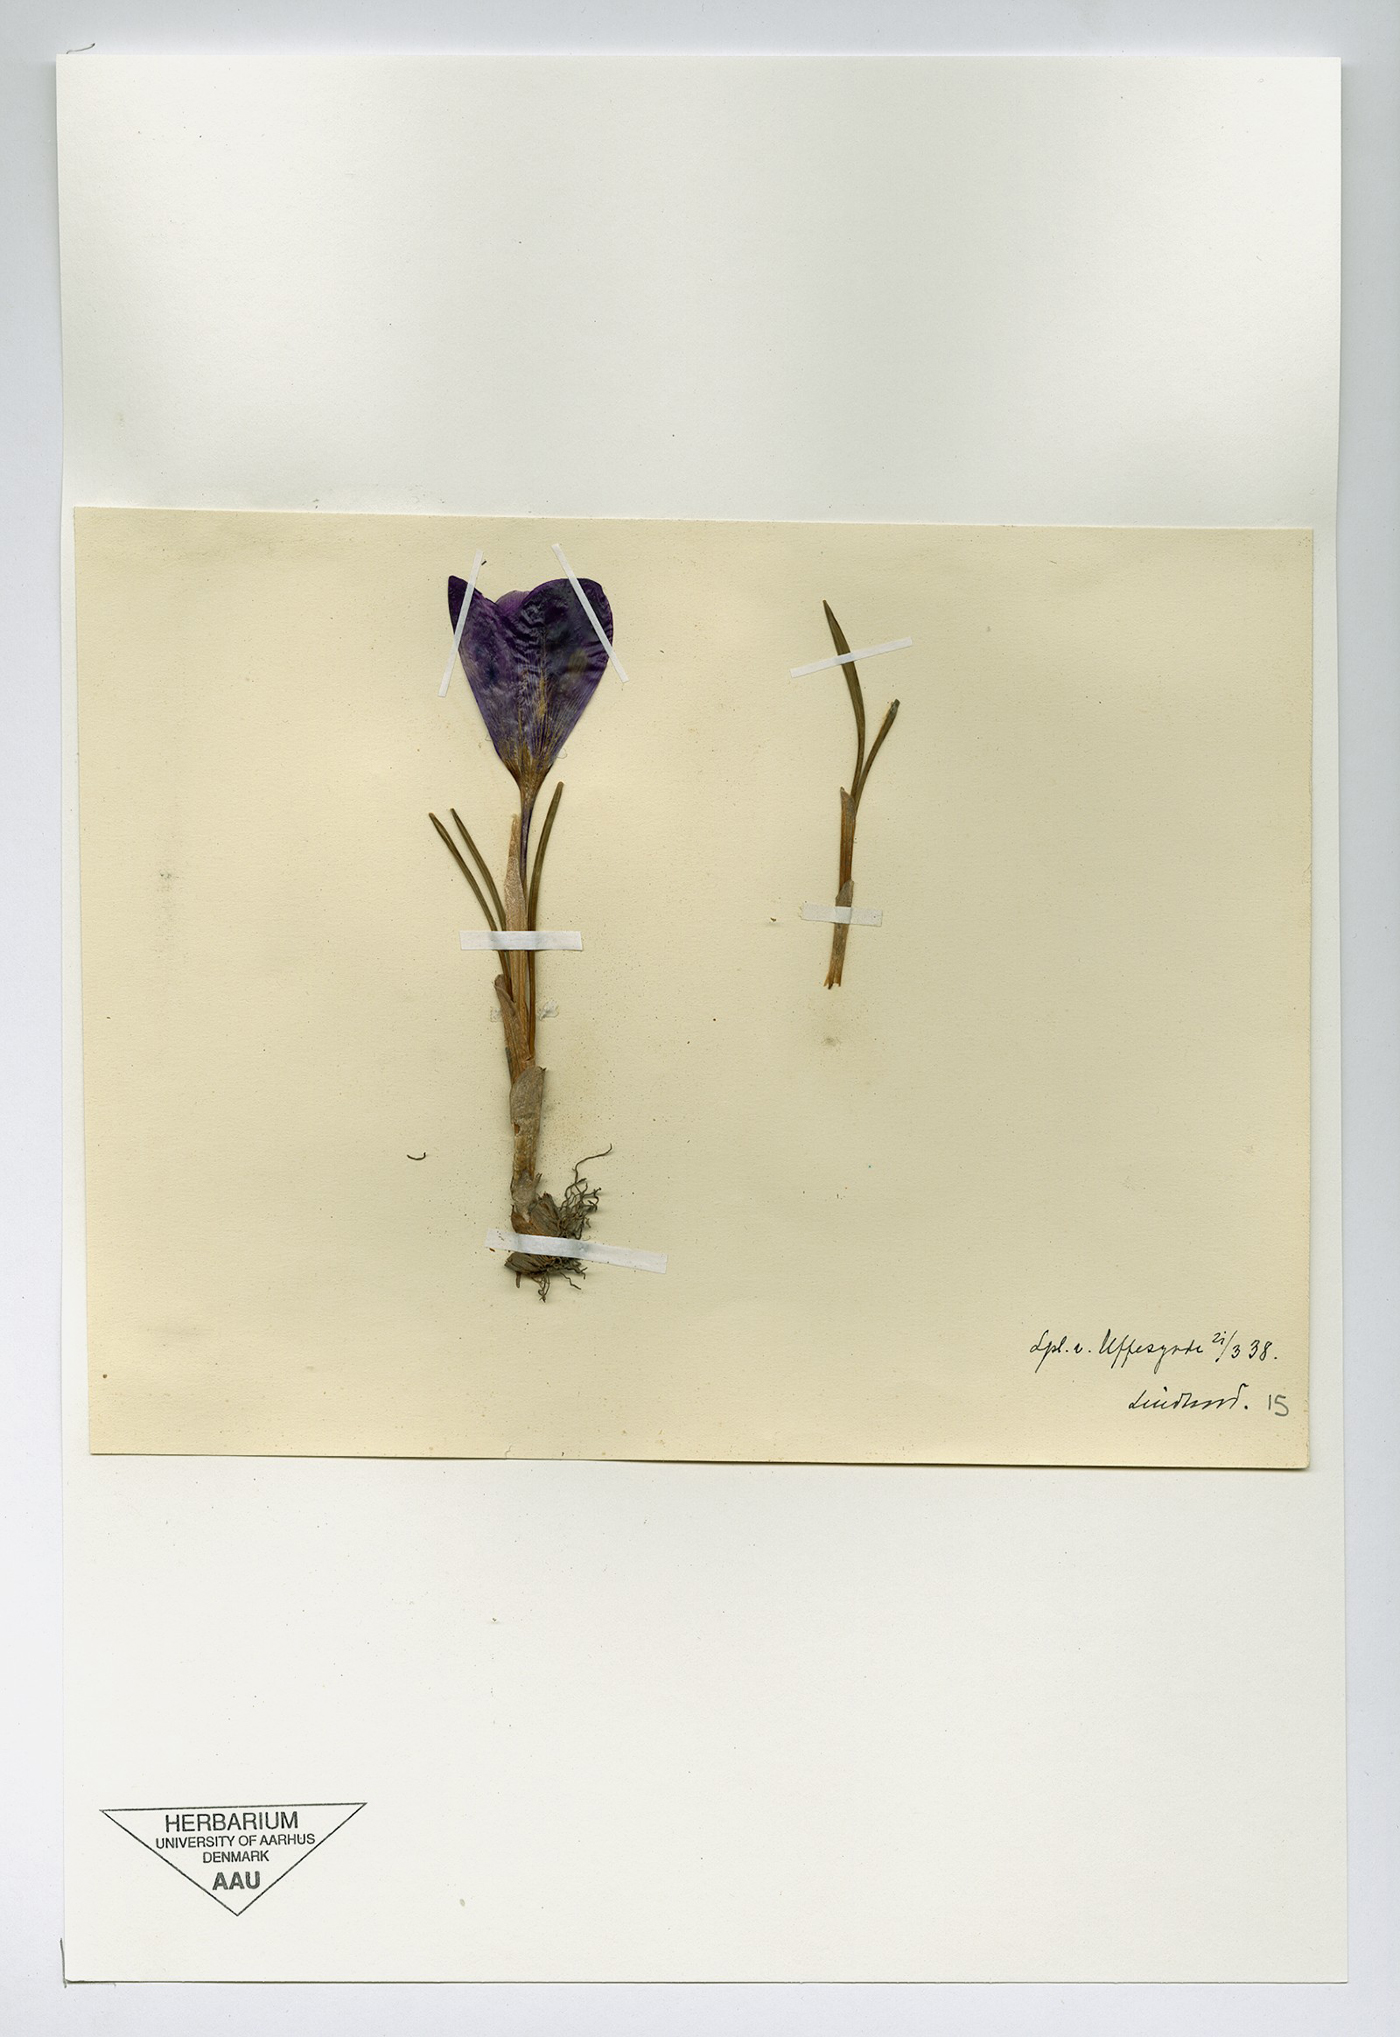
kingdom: Plantae
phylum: Tracheophyta
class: Liliopsida
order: Asparagales
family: Amaryllidaceae
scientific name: Amaryllidaceae
